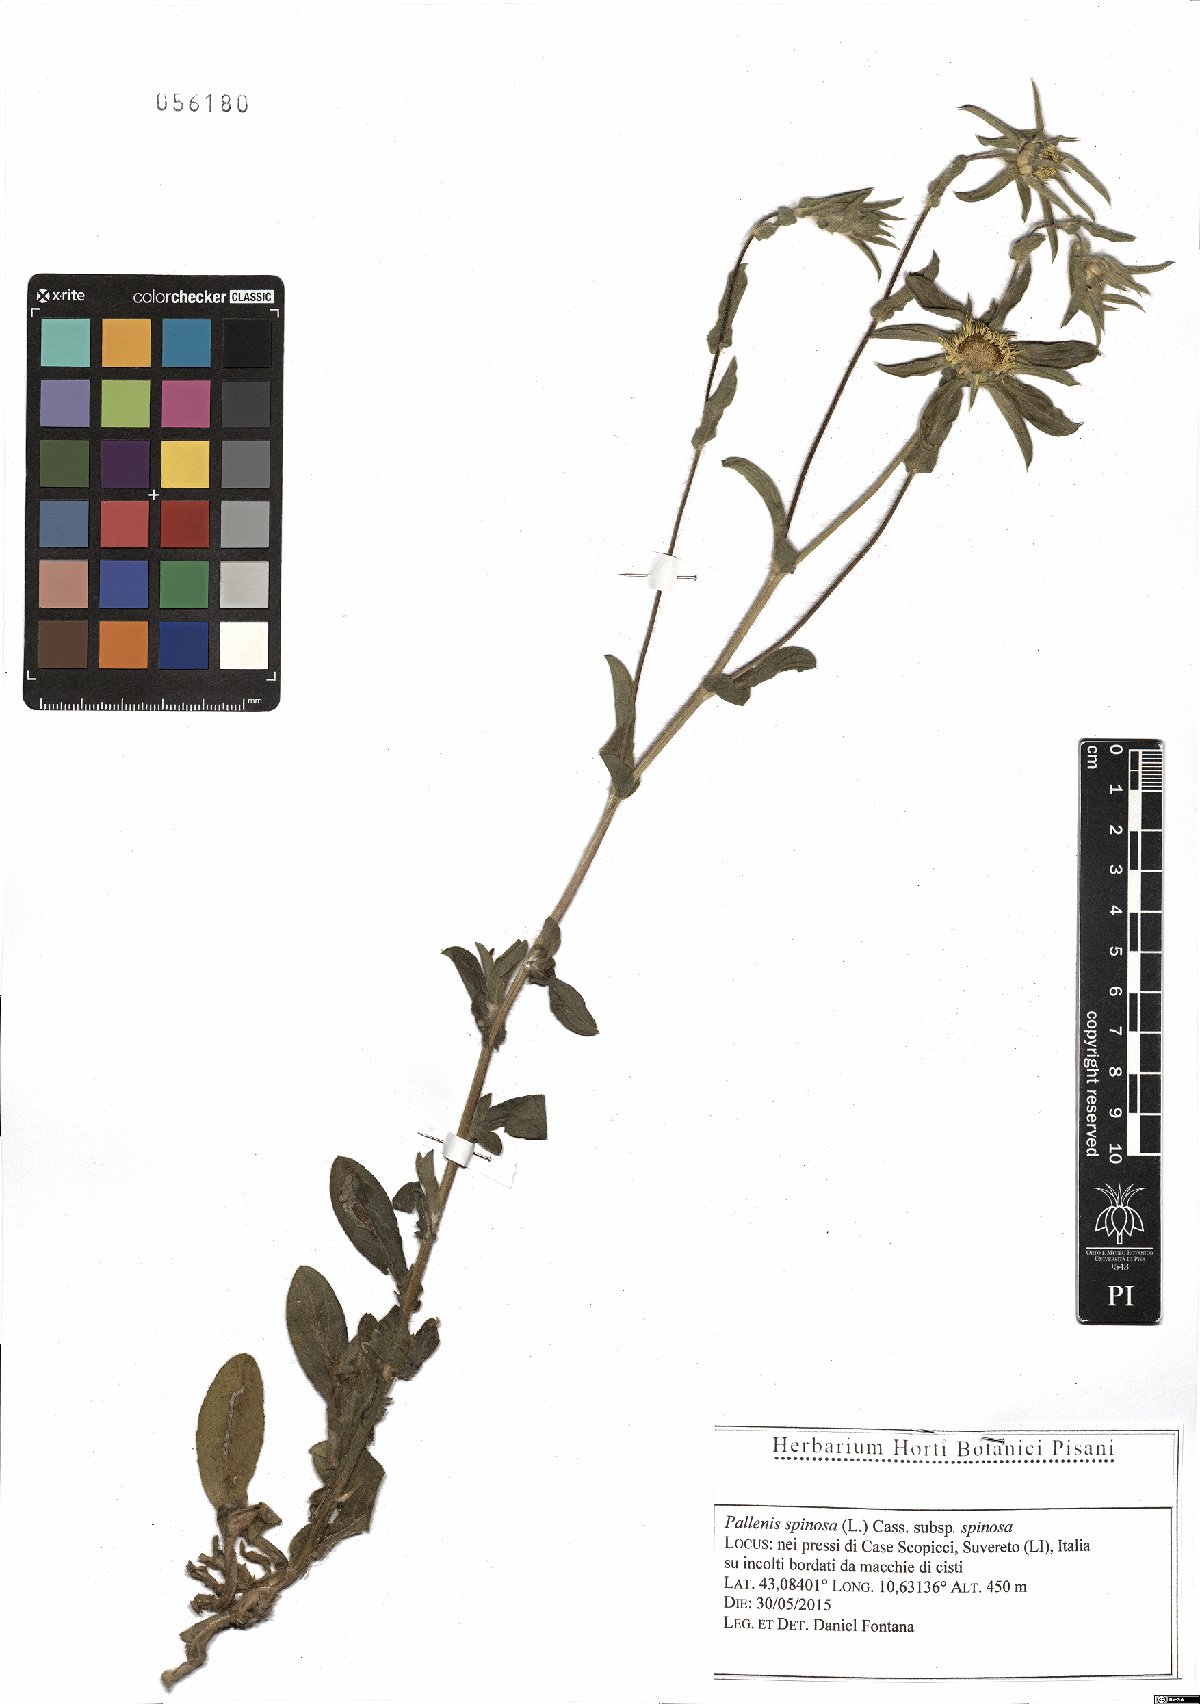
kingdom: Plantae
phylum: Tracheophyta
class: Magnoliopsida
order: Asterales
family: Asteraceae
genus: Pallenis
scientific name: Pallenis spinosa
